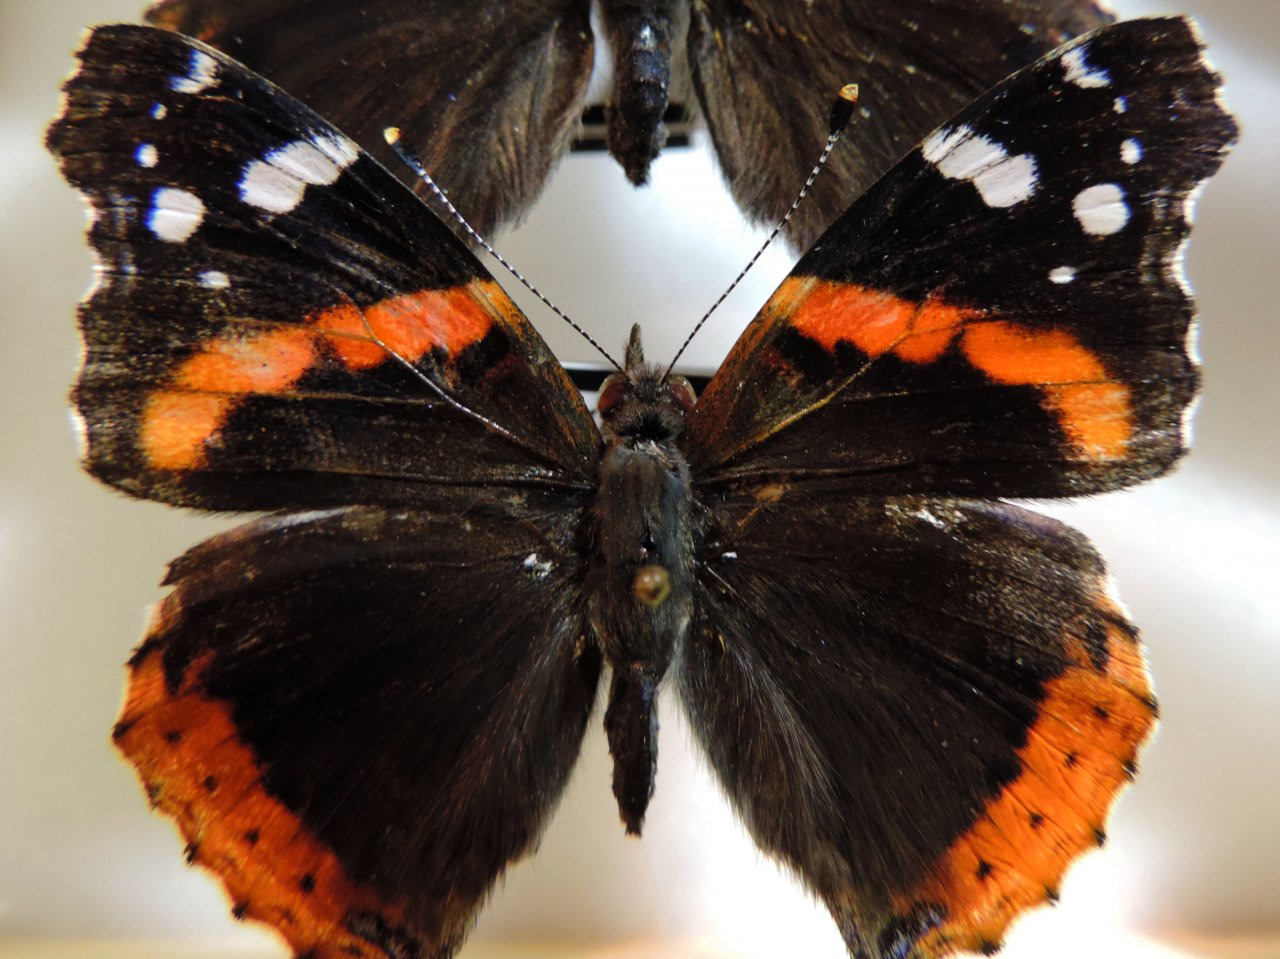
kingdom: Animalia
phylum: Arthropoda
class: Insecta
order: Lepidoptera
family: Nymphalidae
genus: Vanessa
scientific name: Vanessa atalanta
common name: Red Admiral
